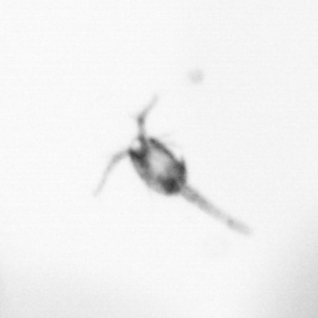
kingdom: Animalia
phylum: Arthropoda
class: Copepoda
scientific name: Copepoda
